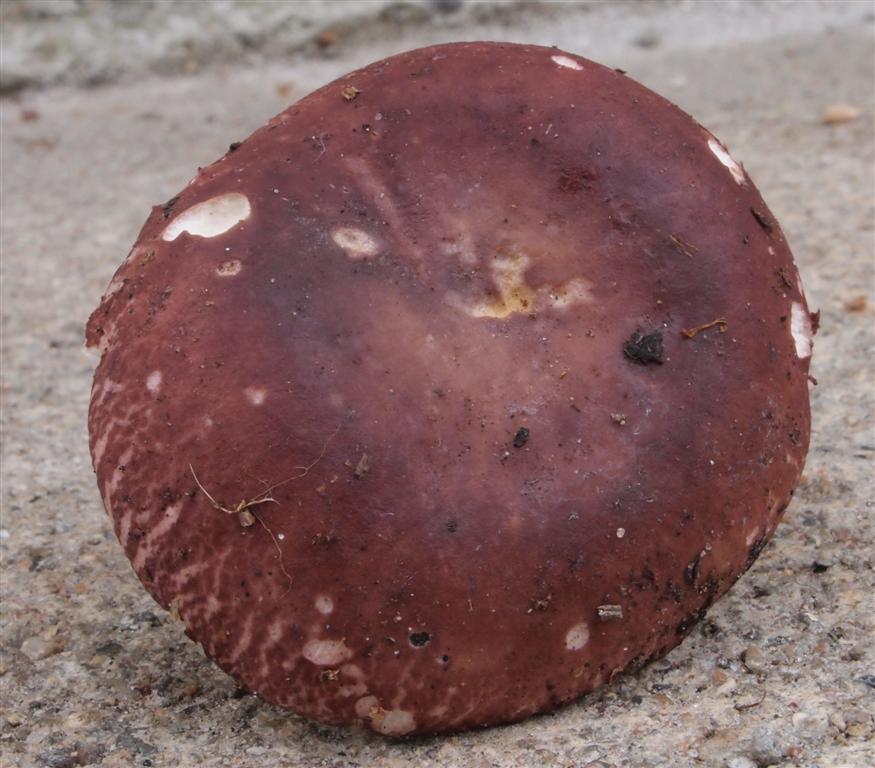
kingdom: Fungi
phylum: Basidiomycota
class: Agaricomycetes
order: Russulales
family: Russulaceae
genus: Russula
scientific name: Russula
